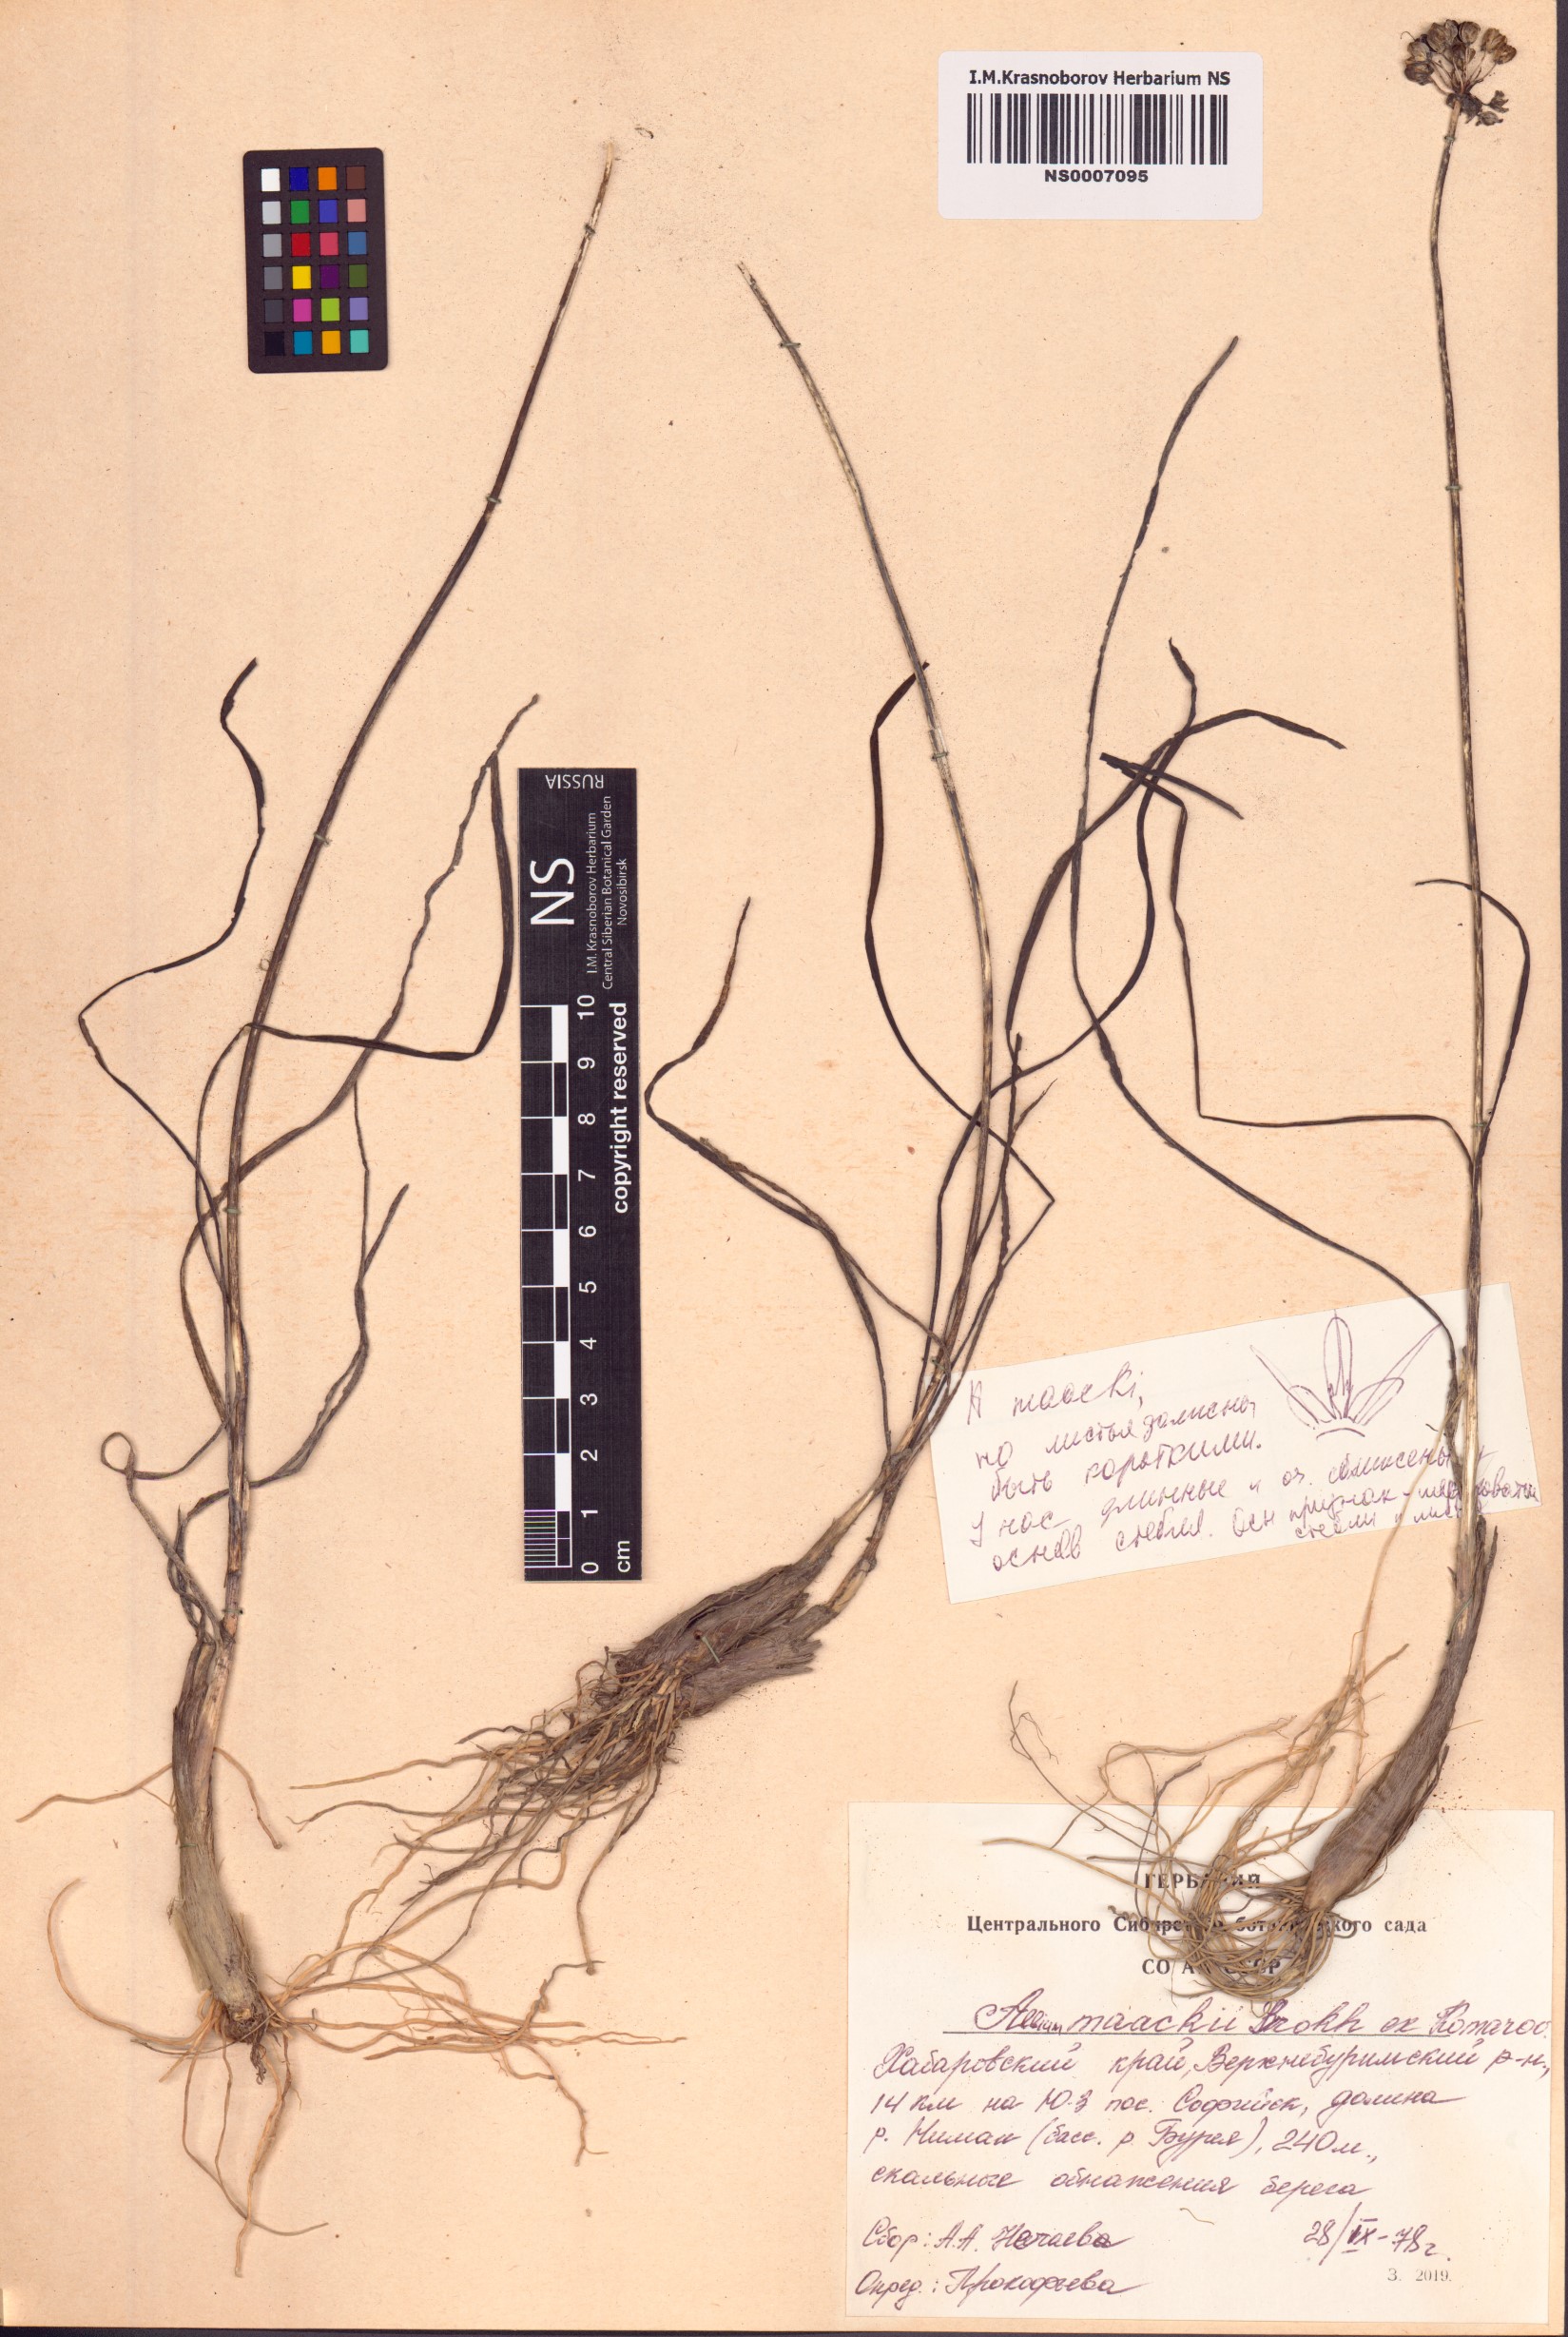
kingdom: Plantae
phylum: Tracheophyta
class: Liliopsida
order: Asparagales
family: Amaryllidaceae
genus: Allium
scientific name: Allium maackii
